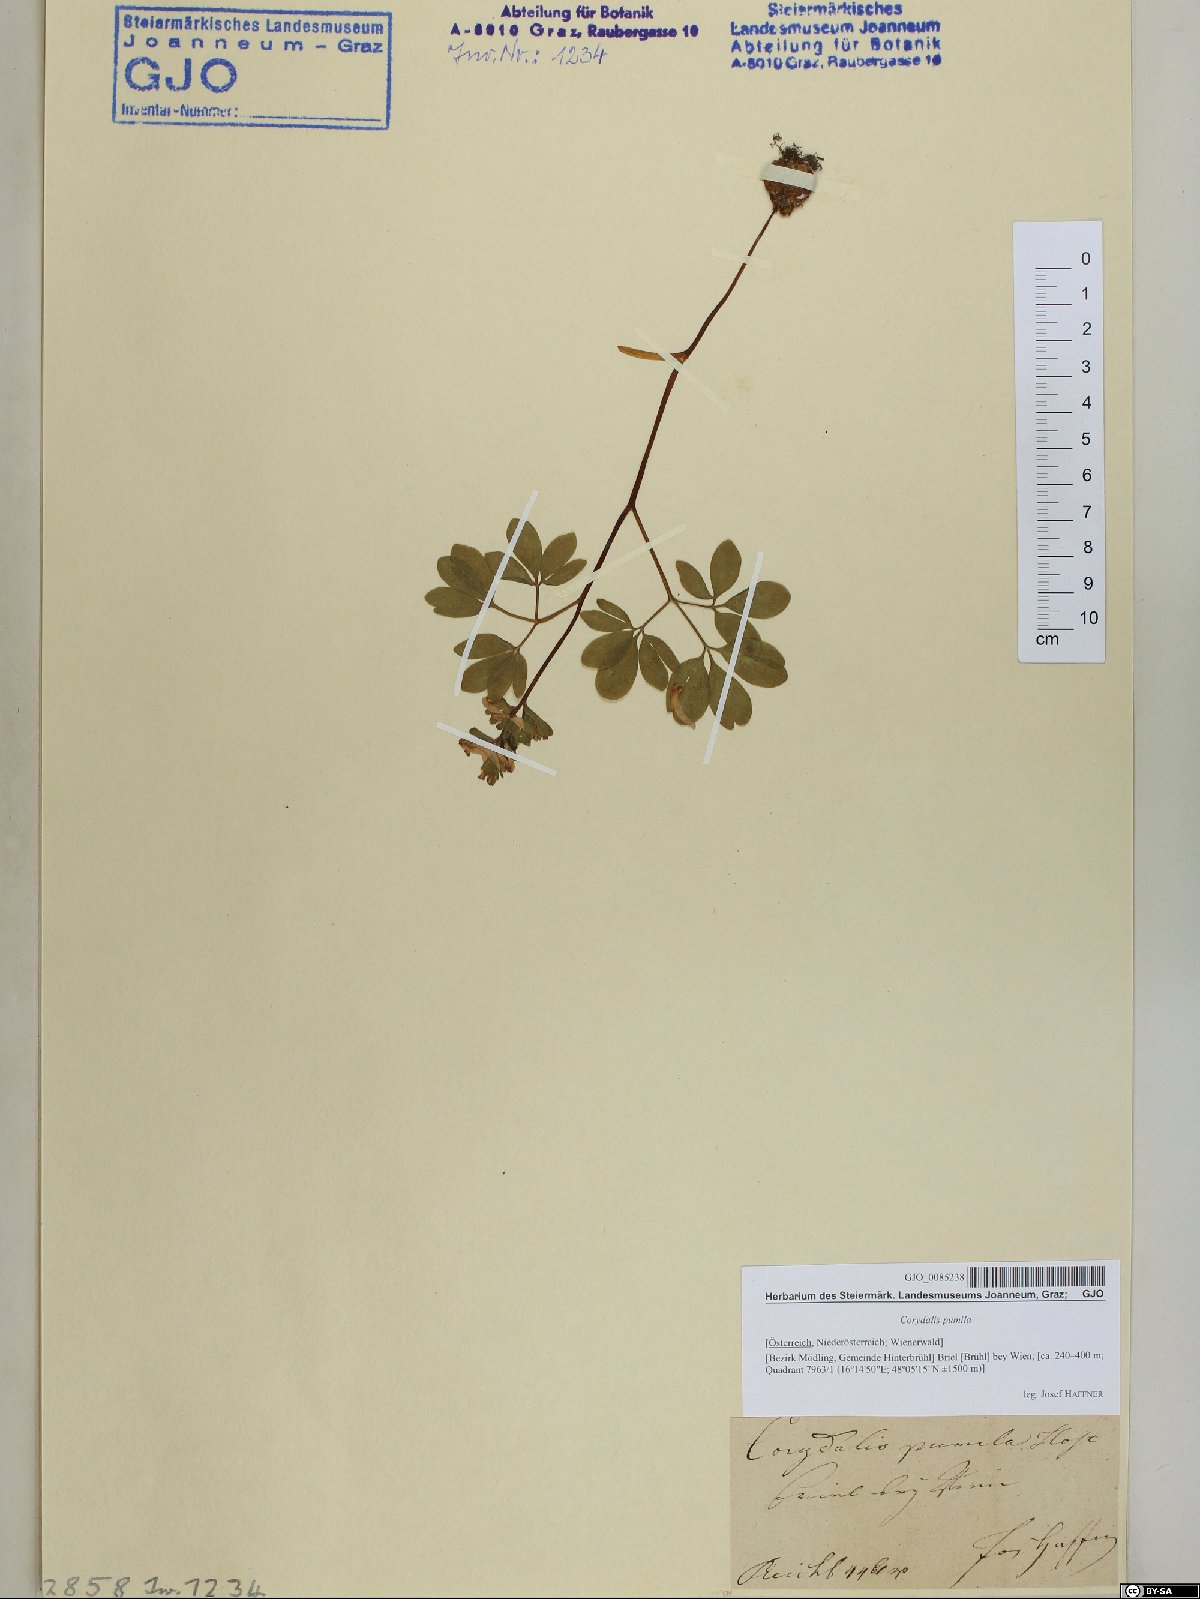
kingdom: Plantae
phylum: Tracheophyta
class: Magnoliopsida
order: Ranunculales
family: Papaveraceae
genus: Corydalis
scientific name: Corydalis pumila
